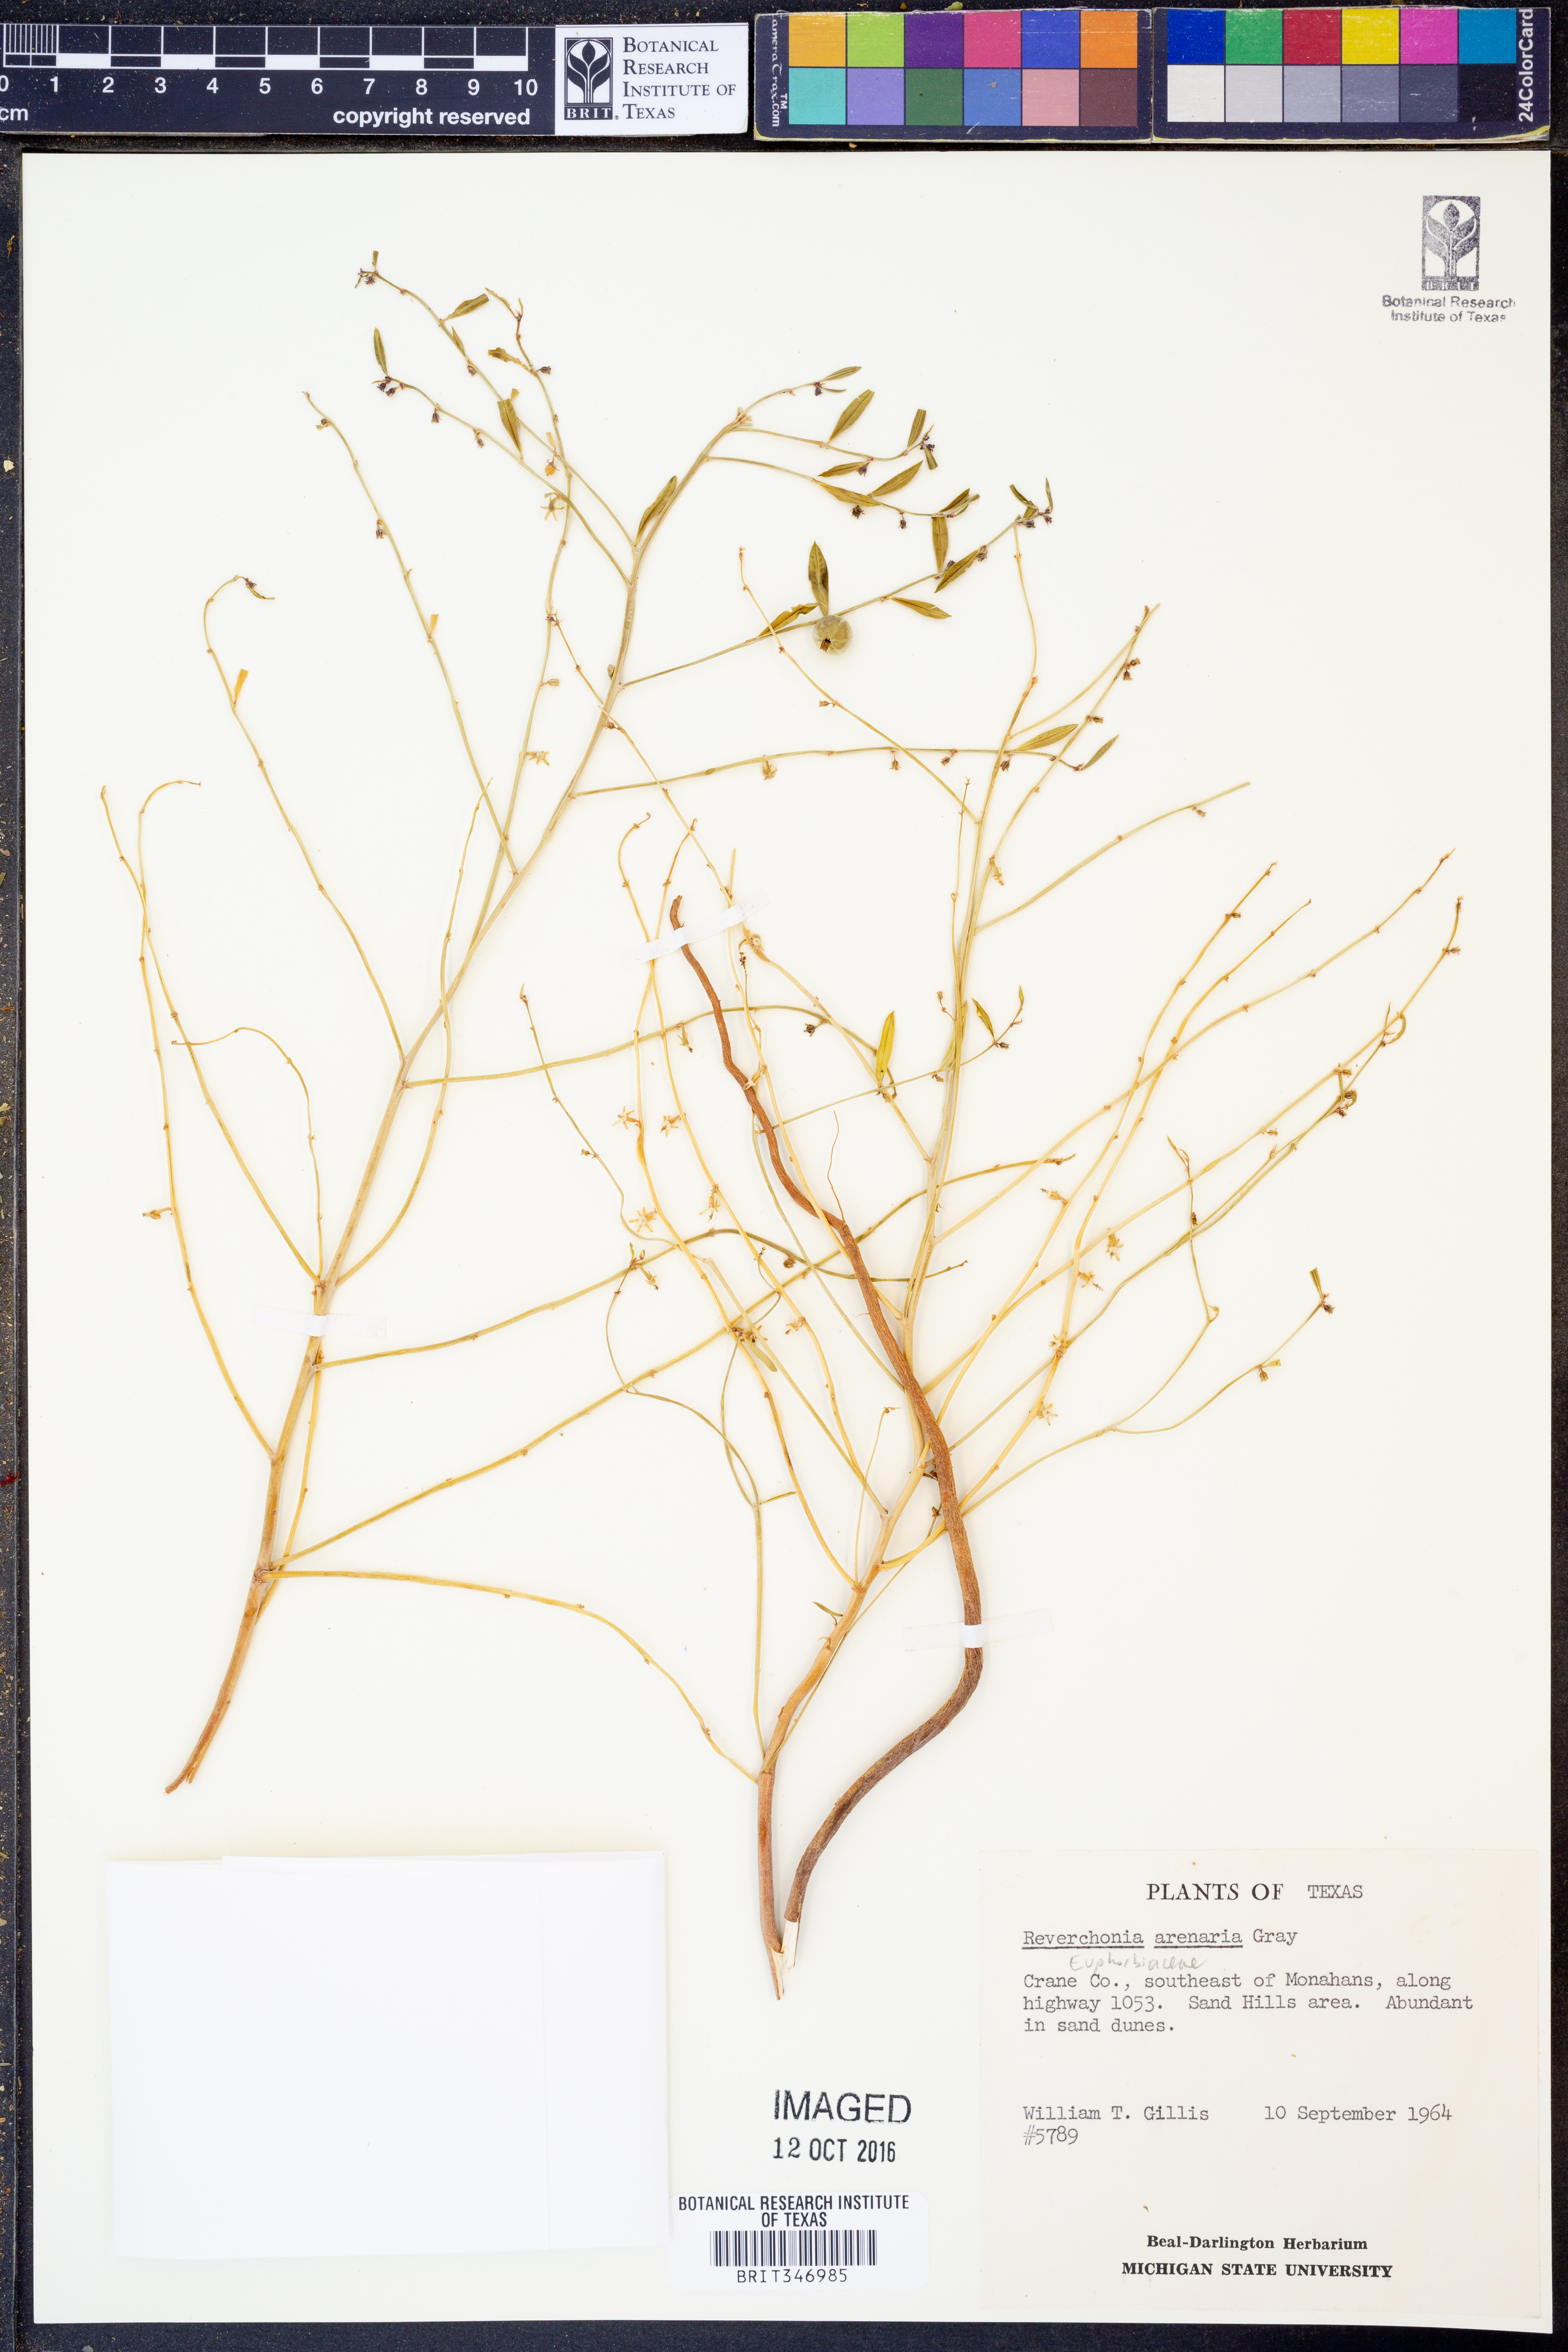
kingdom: Plantae
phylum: Tracheophyta
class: Magnoliopsida
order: Malpighiales
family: Phyllanthaceae
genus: Phyllanthus
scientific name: Phyllanthus warnockii
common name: Sand reverchonia
